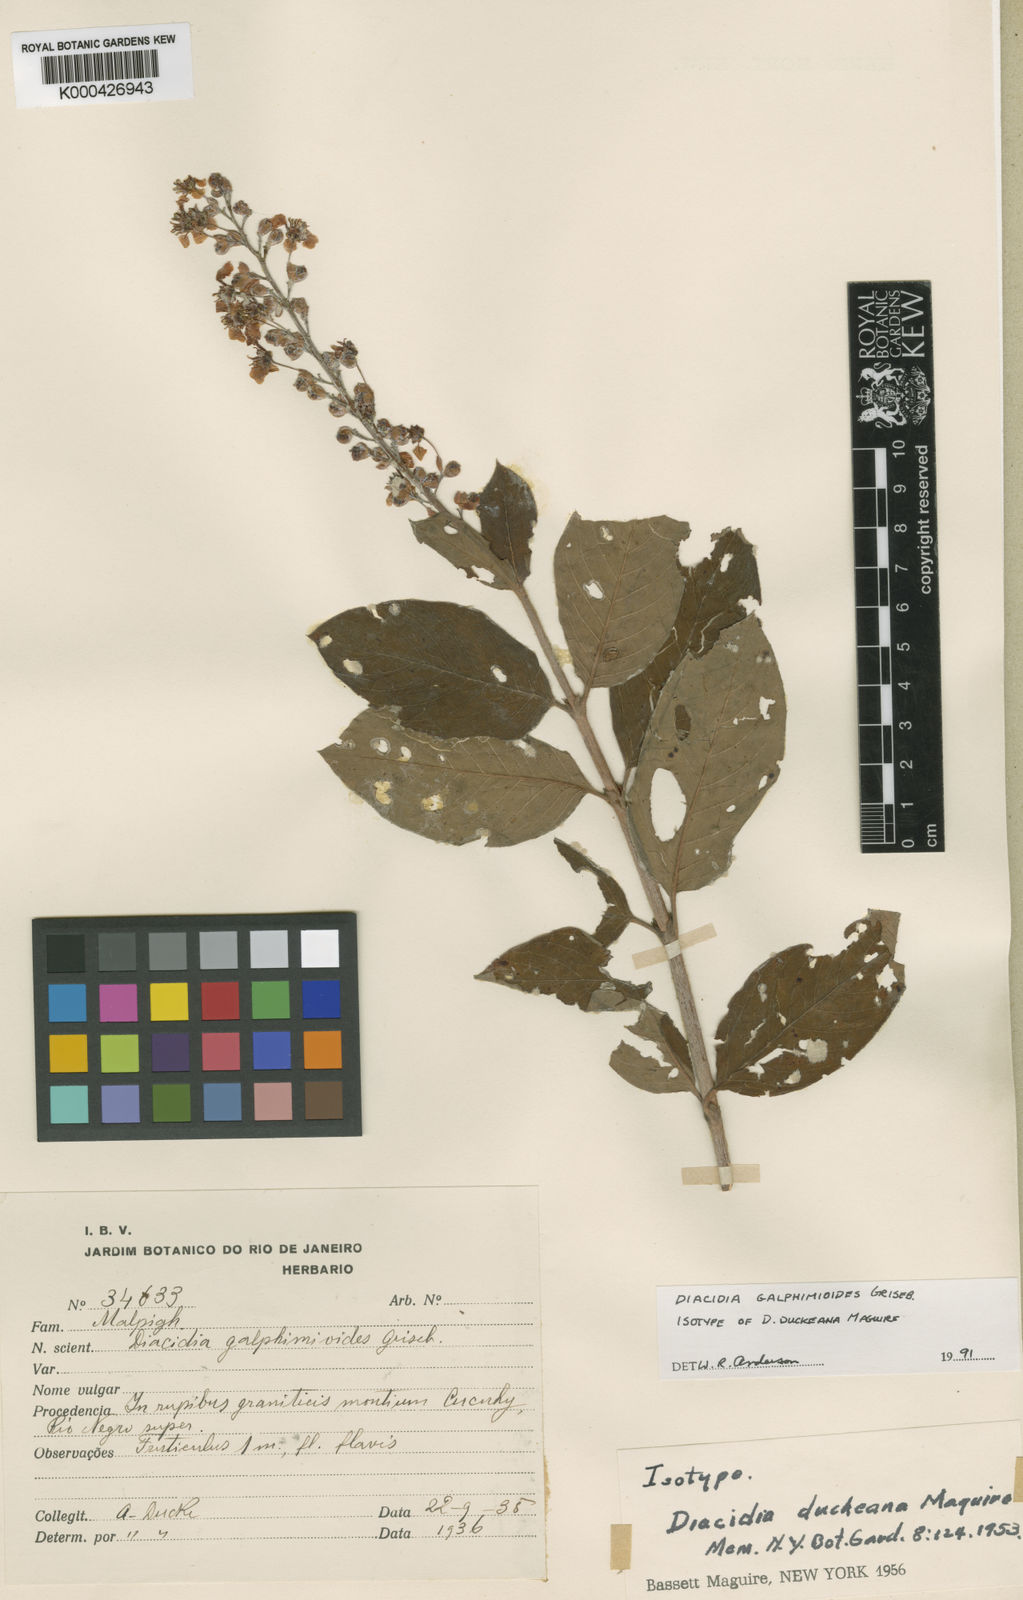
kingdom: Plantae
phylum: Tracheophyta
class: Magnoliopsida
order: Malpighiales
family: Malpighiaceae
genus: Diacidia
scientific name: Diacidia galphimioides
